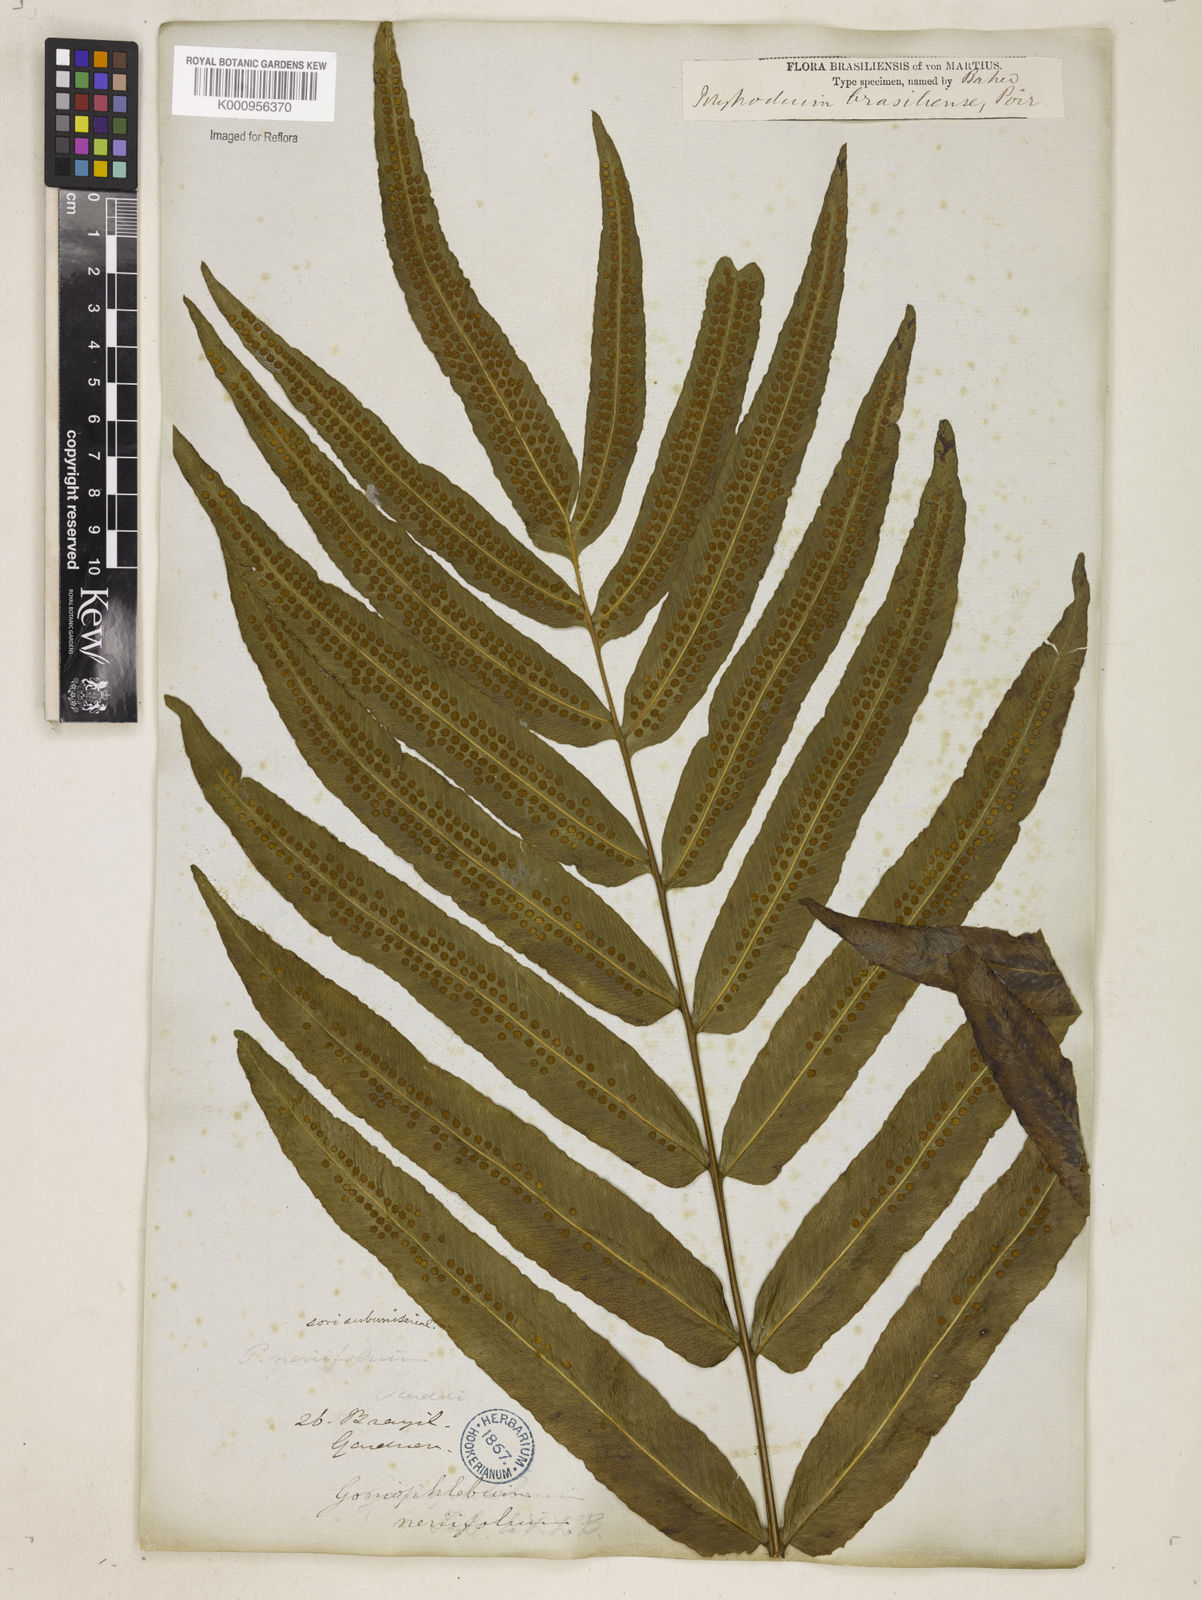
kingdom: Plantae
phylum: Tracheophyta
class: Polypodiopsida
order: Polypodiales
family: Polypodiaceae
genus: Serpocaulon
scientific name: Serpocaulon triseriale
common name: Angle-vein fern
